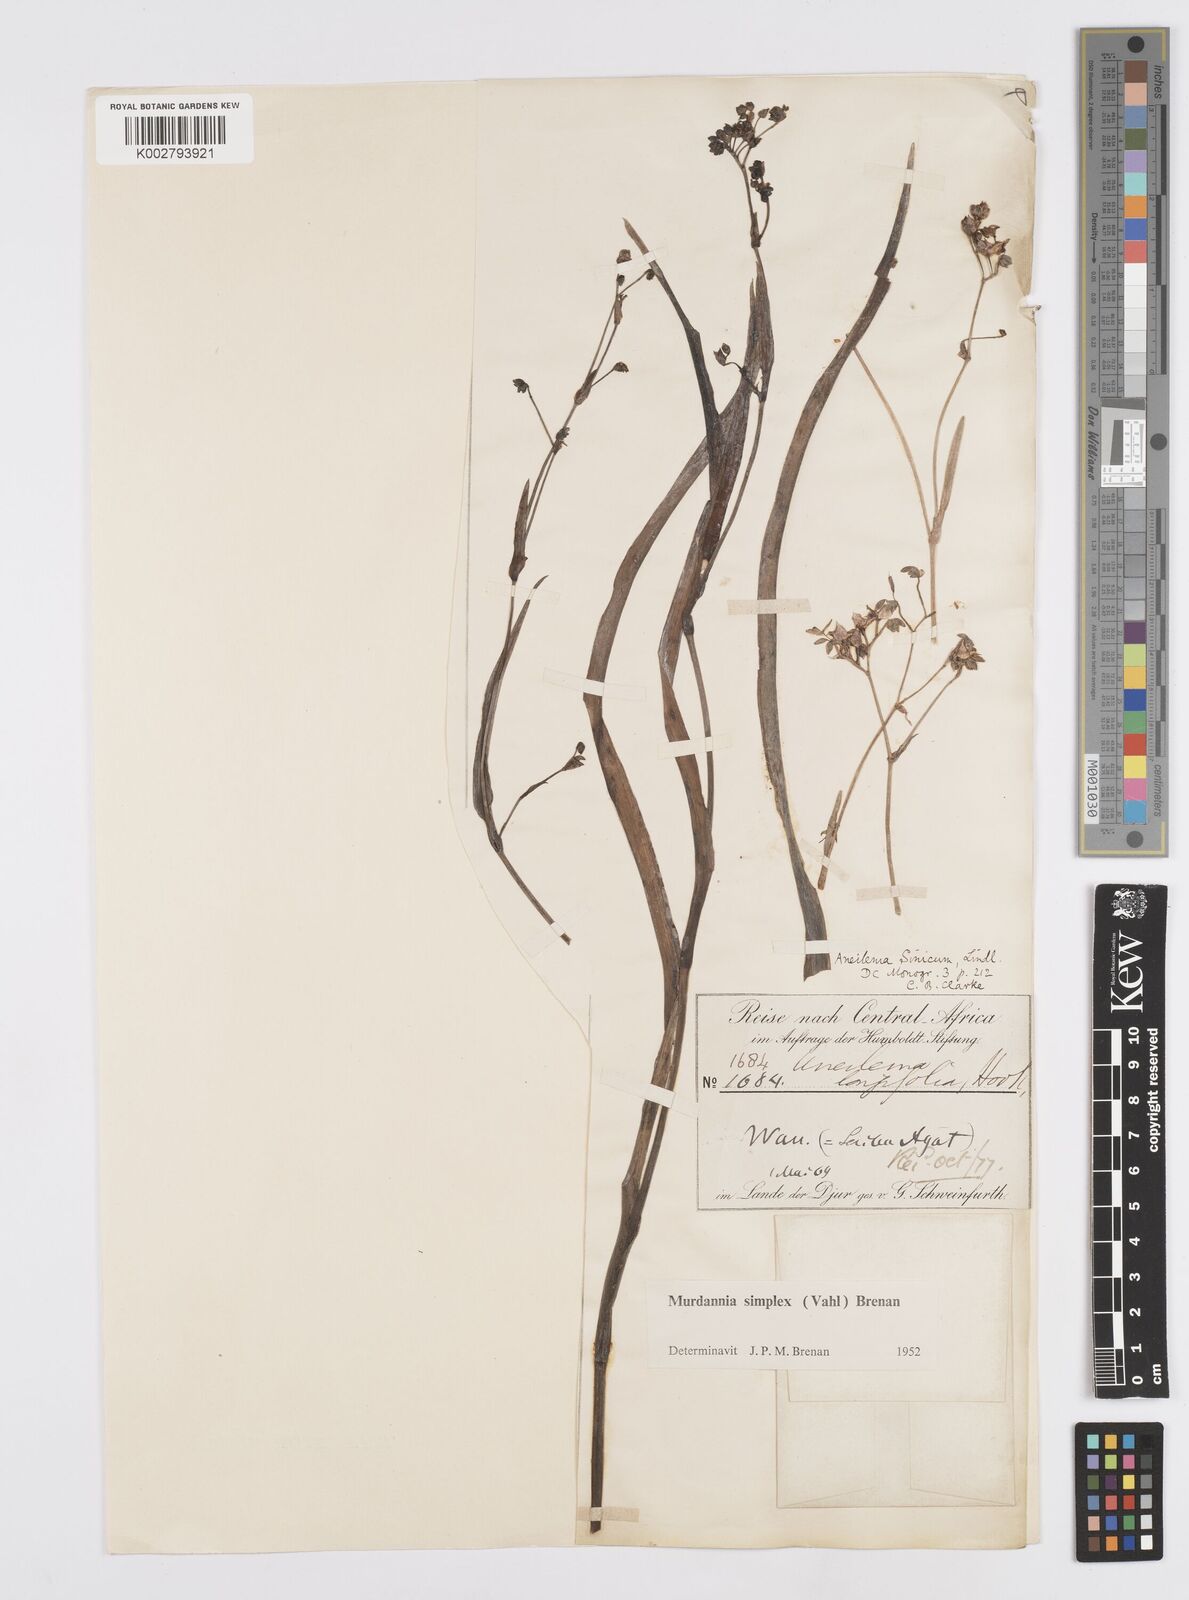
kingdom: Plantae
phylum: Tracheophyta
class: Liliopsida
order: Commelinales
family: Commelinaceae
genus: Murdannia
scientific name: Murdannia simplex
